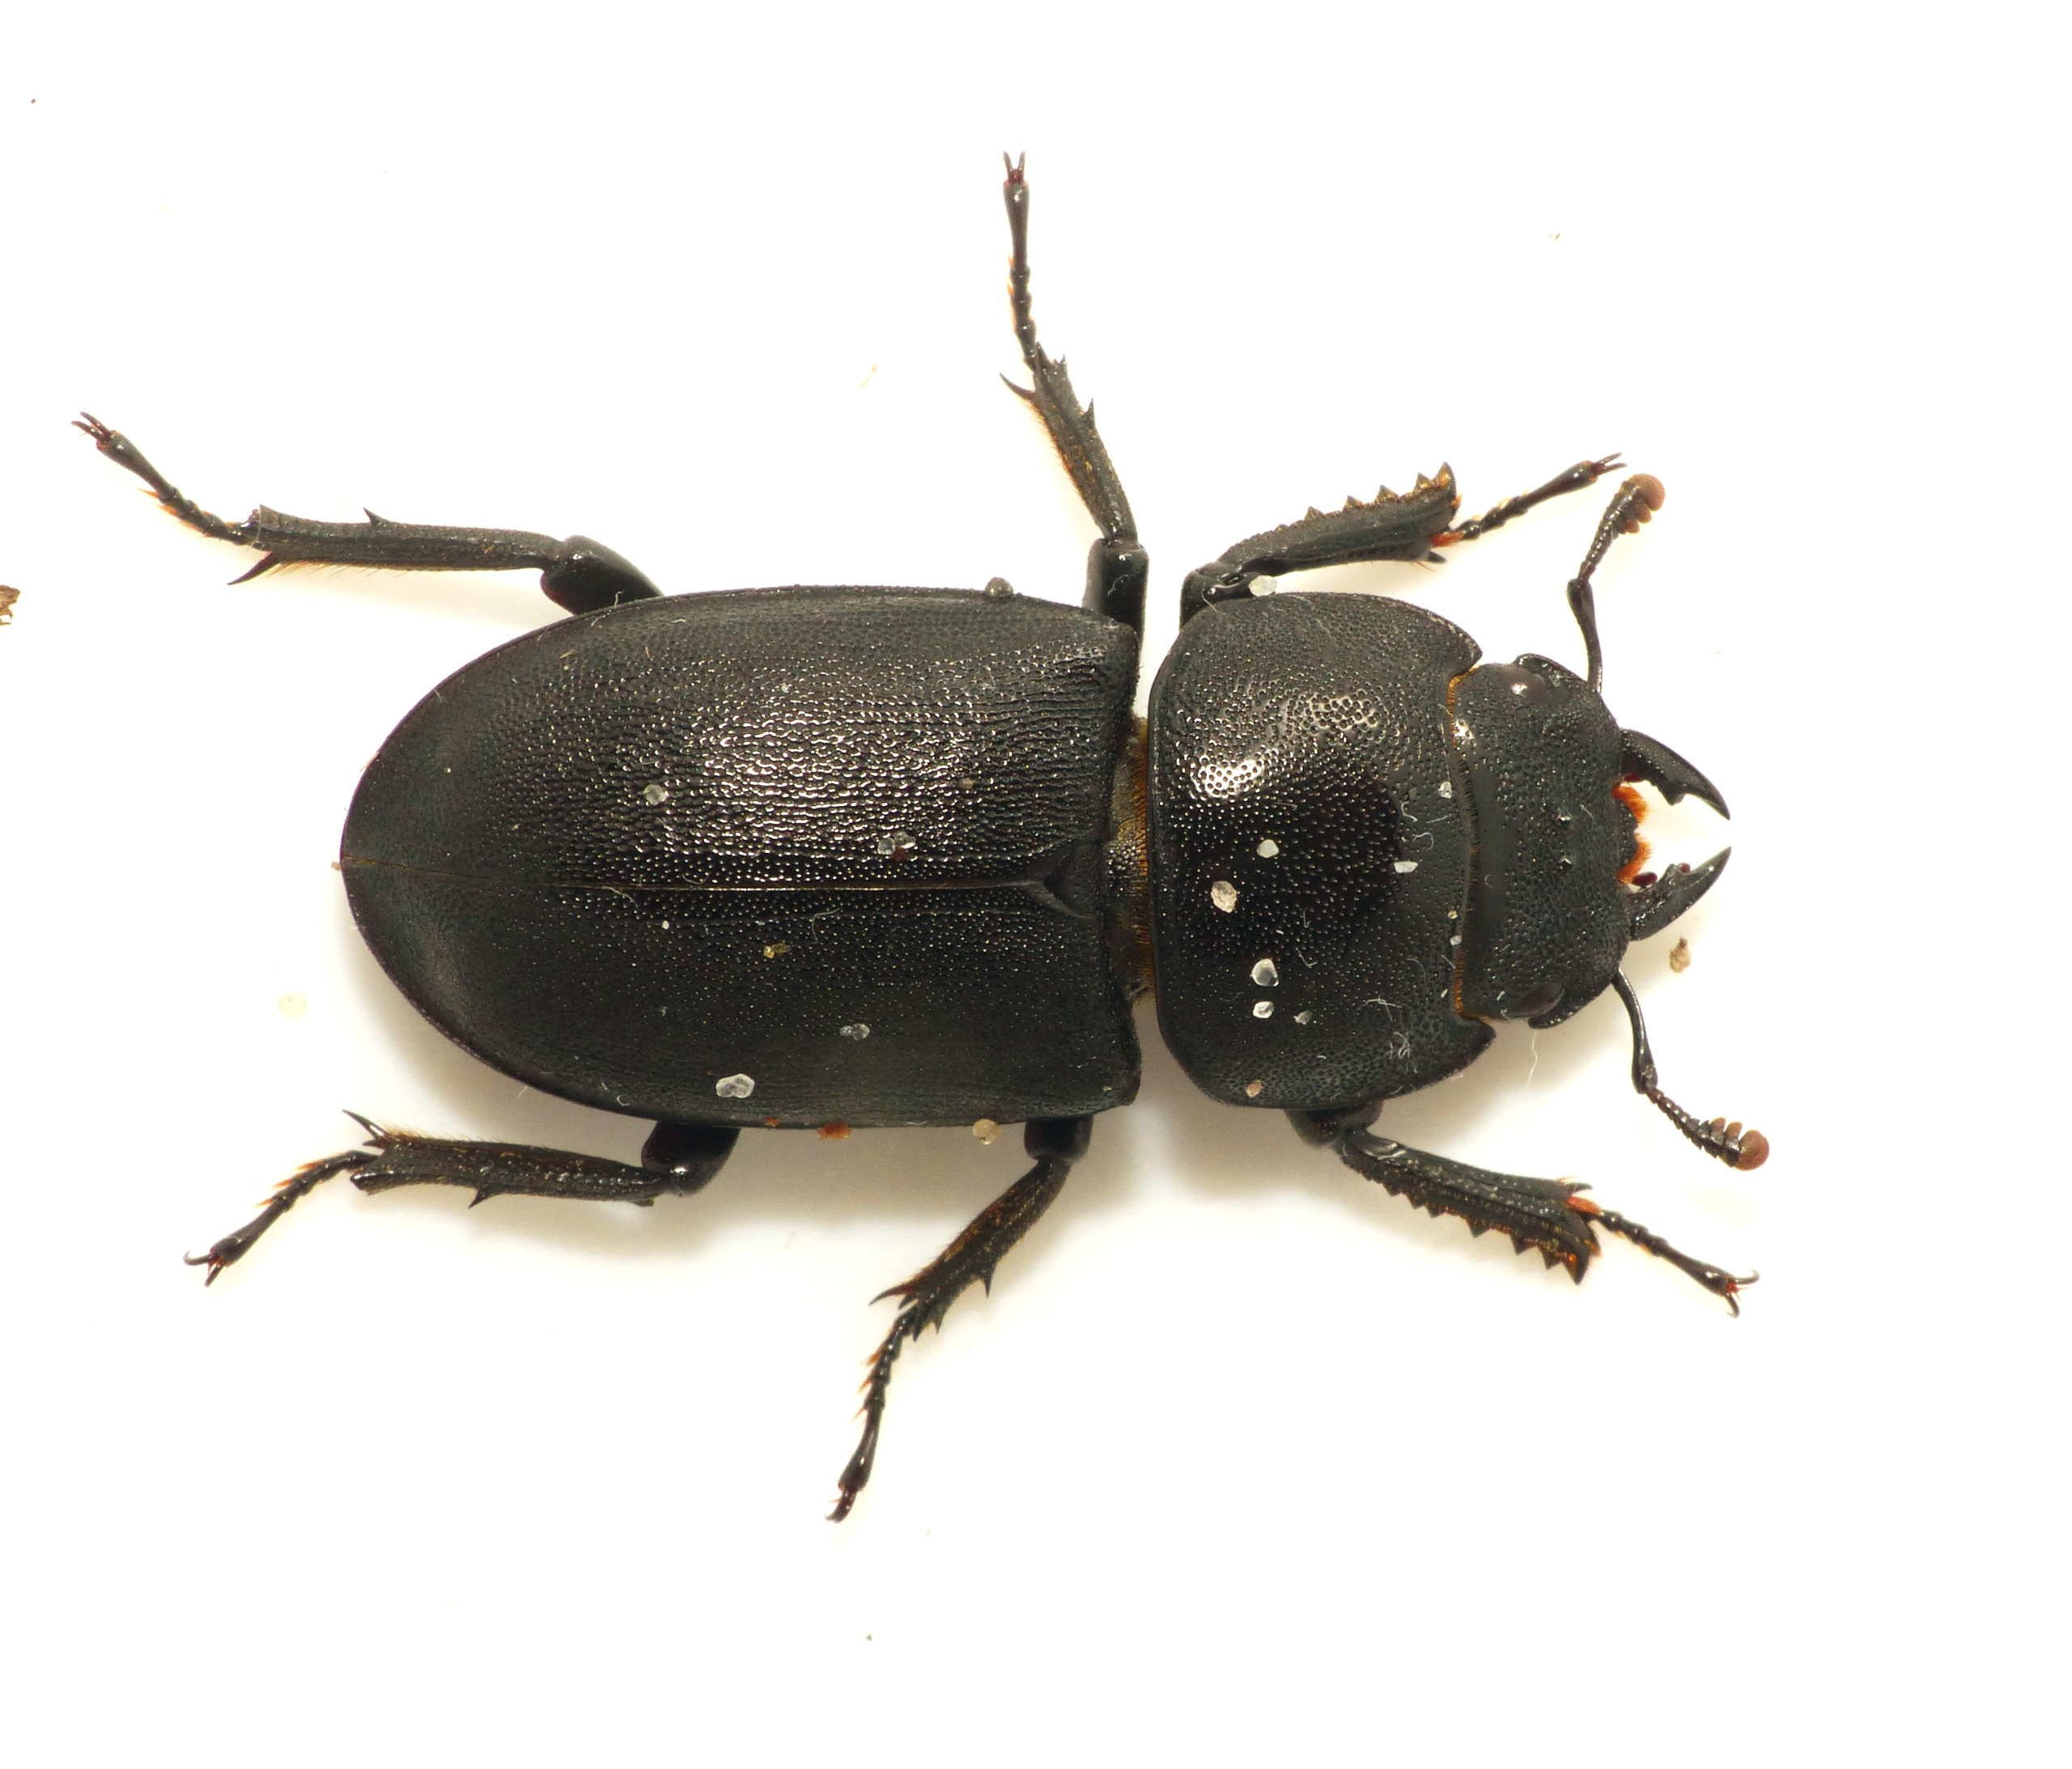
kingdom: Animalia
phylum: Arthropoda
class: Insecta
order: Coleoptera
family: Lucanidae
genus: Dorcus
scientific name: Dorcus parallelipipedus
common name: Bøghjort
